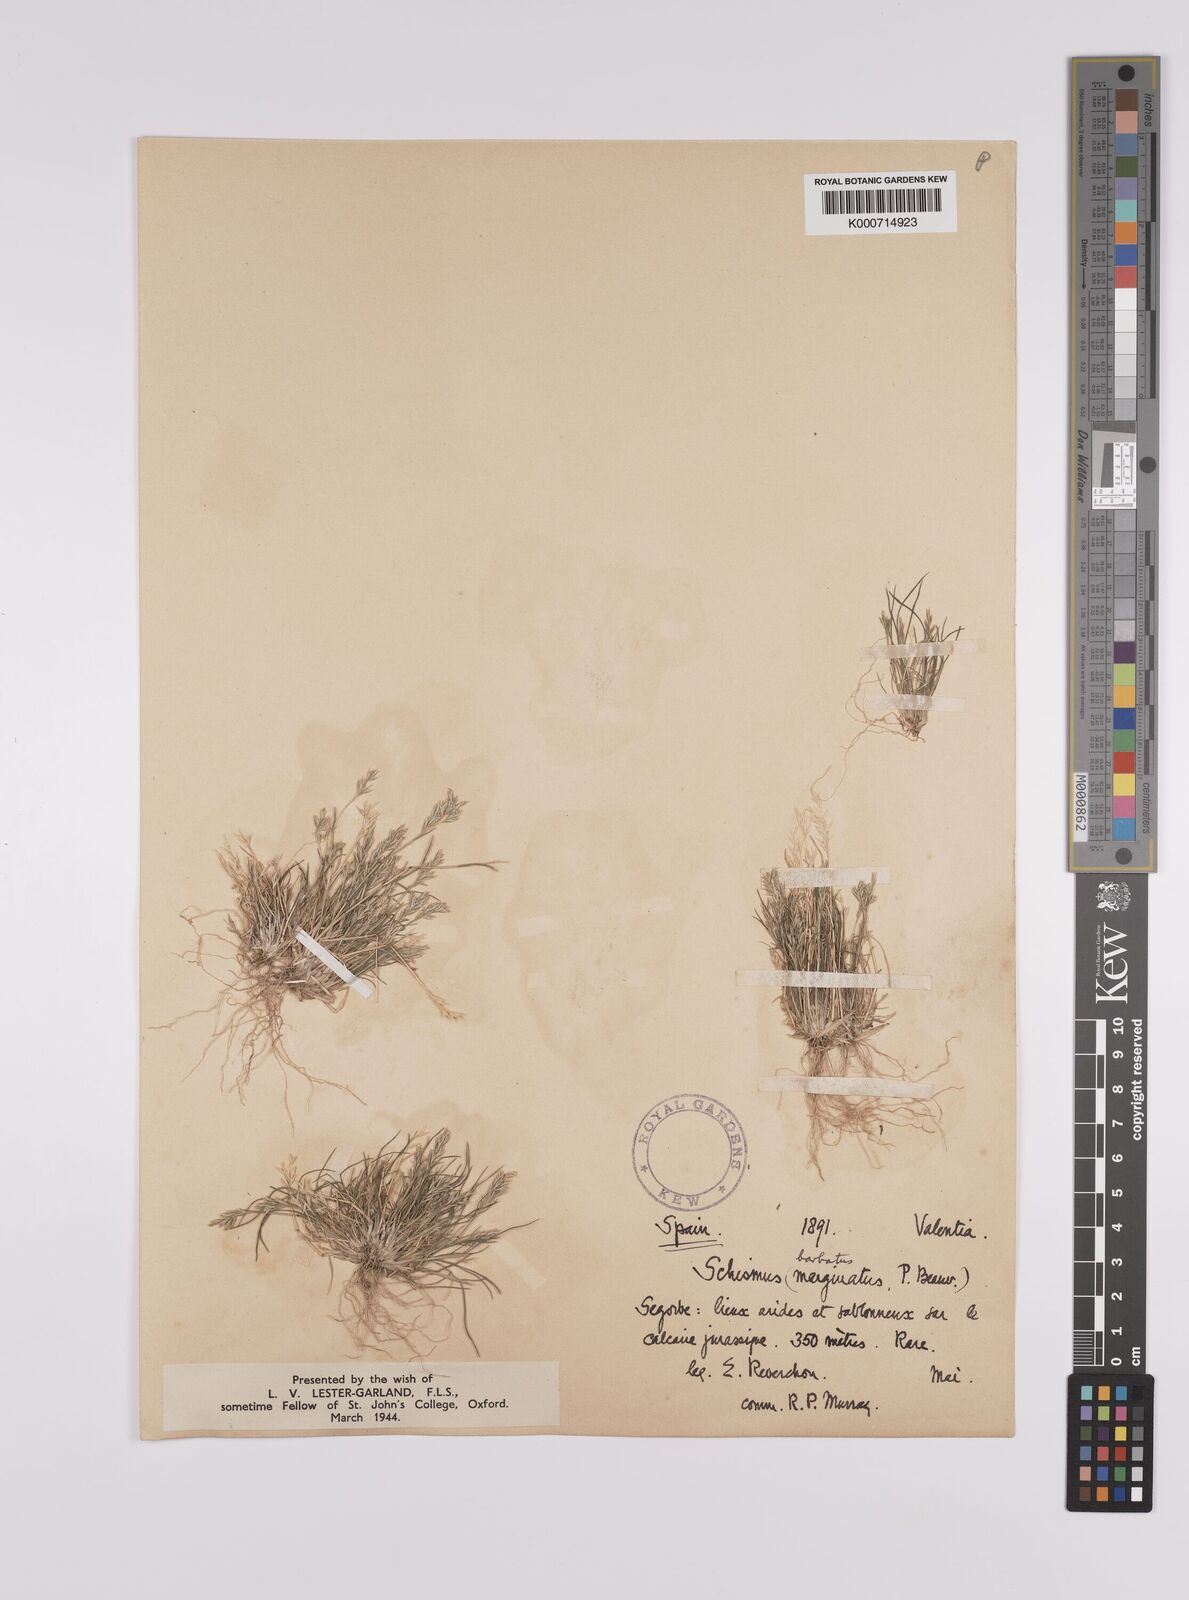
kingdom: Plantae
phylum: Tracheophyta
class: Liliopsida
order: Poales
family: Poaceae
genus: Schismus
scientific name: Schismus barbatus
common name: Kelch-grass
